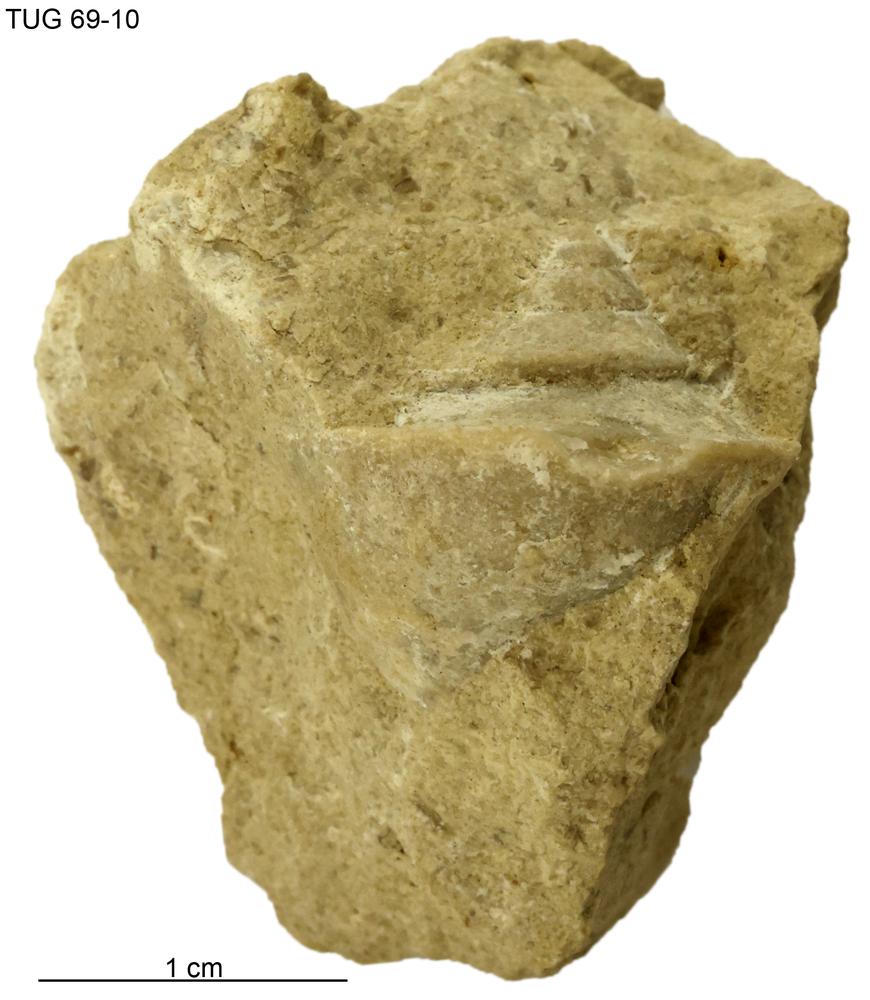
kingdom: Animalia
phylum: Mollusca
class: Gastropoda
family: Lophospiridae
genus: Loxoplocus
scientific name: Loxoplocus
